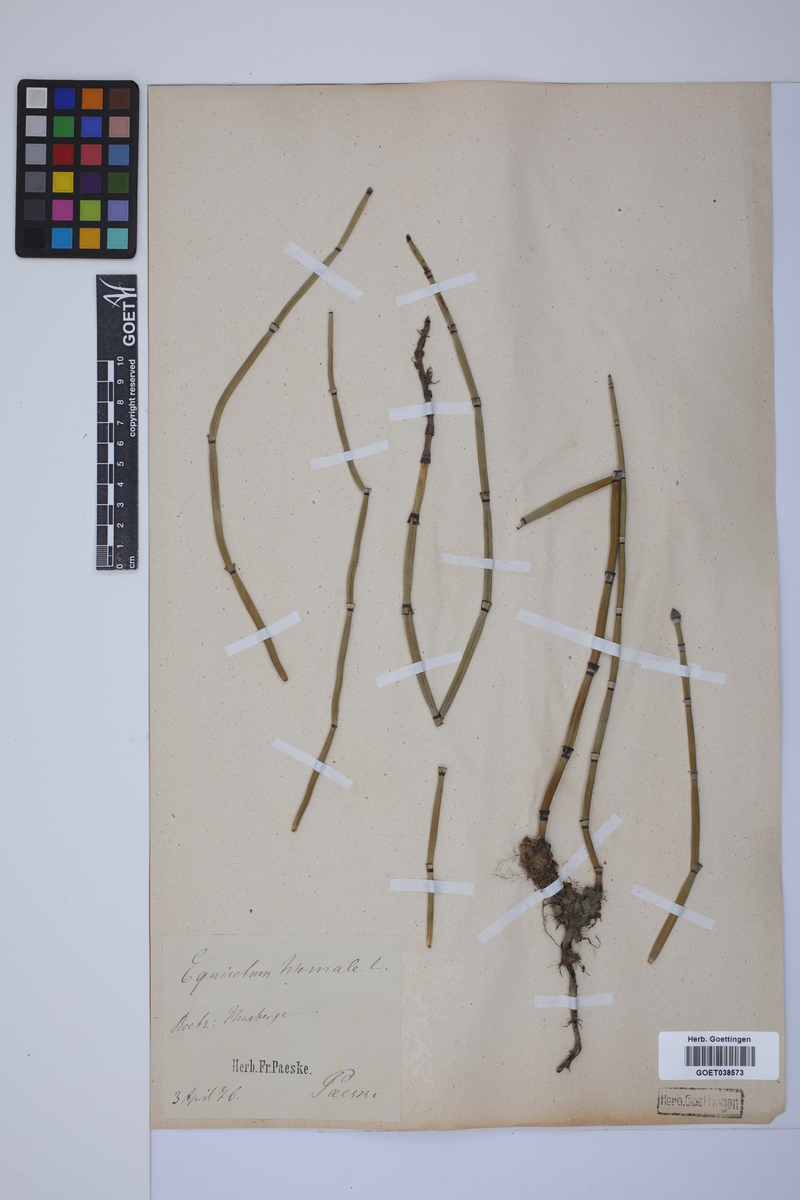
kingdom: Plantae
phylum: Tracheophyta
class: Polypodiopsida
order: Equisetales
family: Equisetaceae
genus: Equisetum
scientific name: Equisetum hyemale
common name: Rough horsetail
